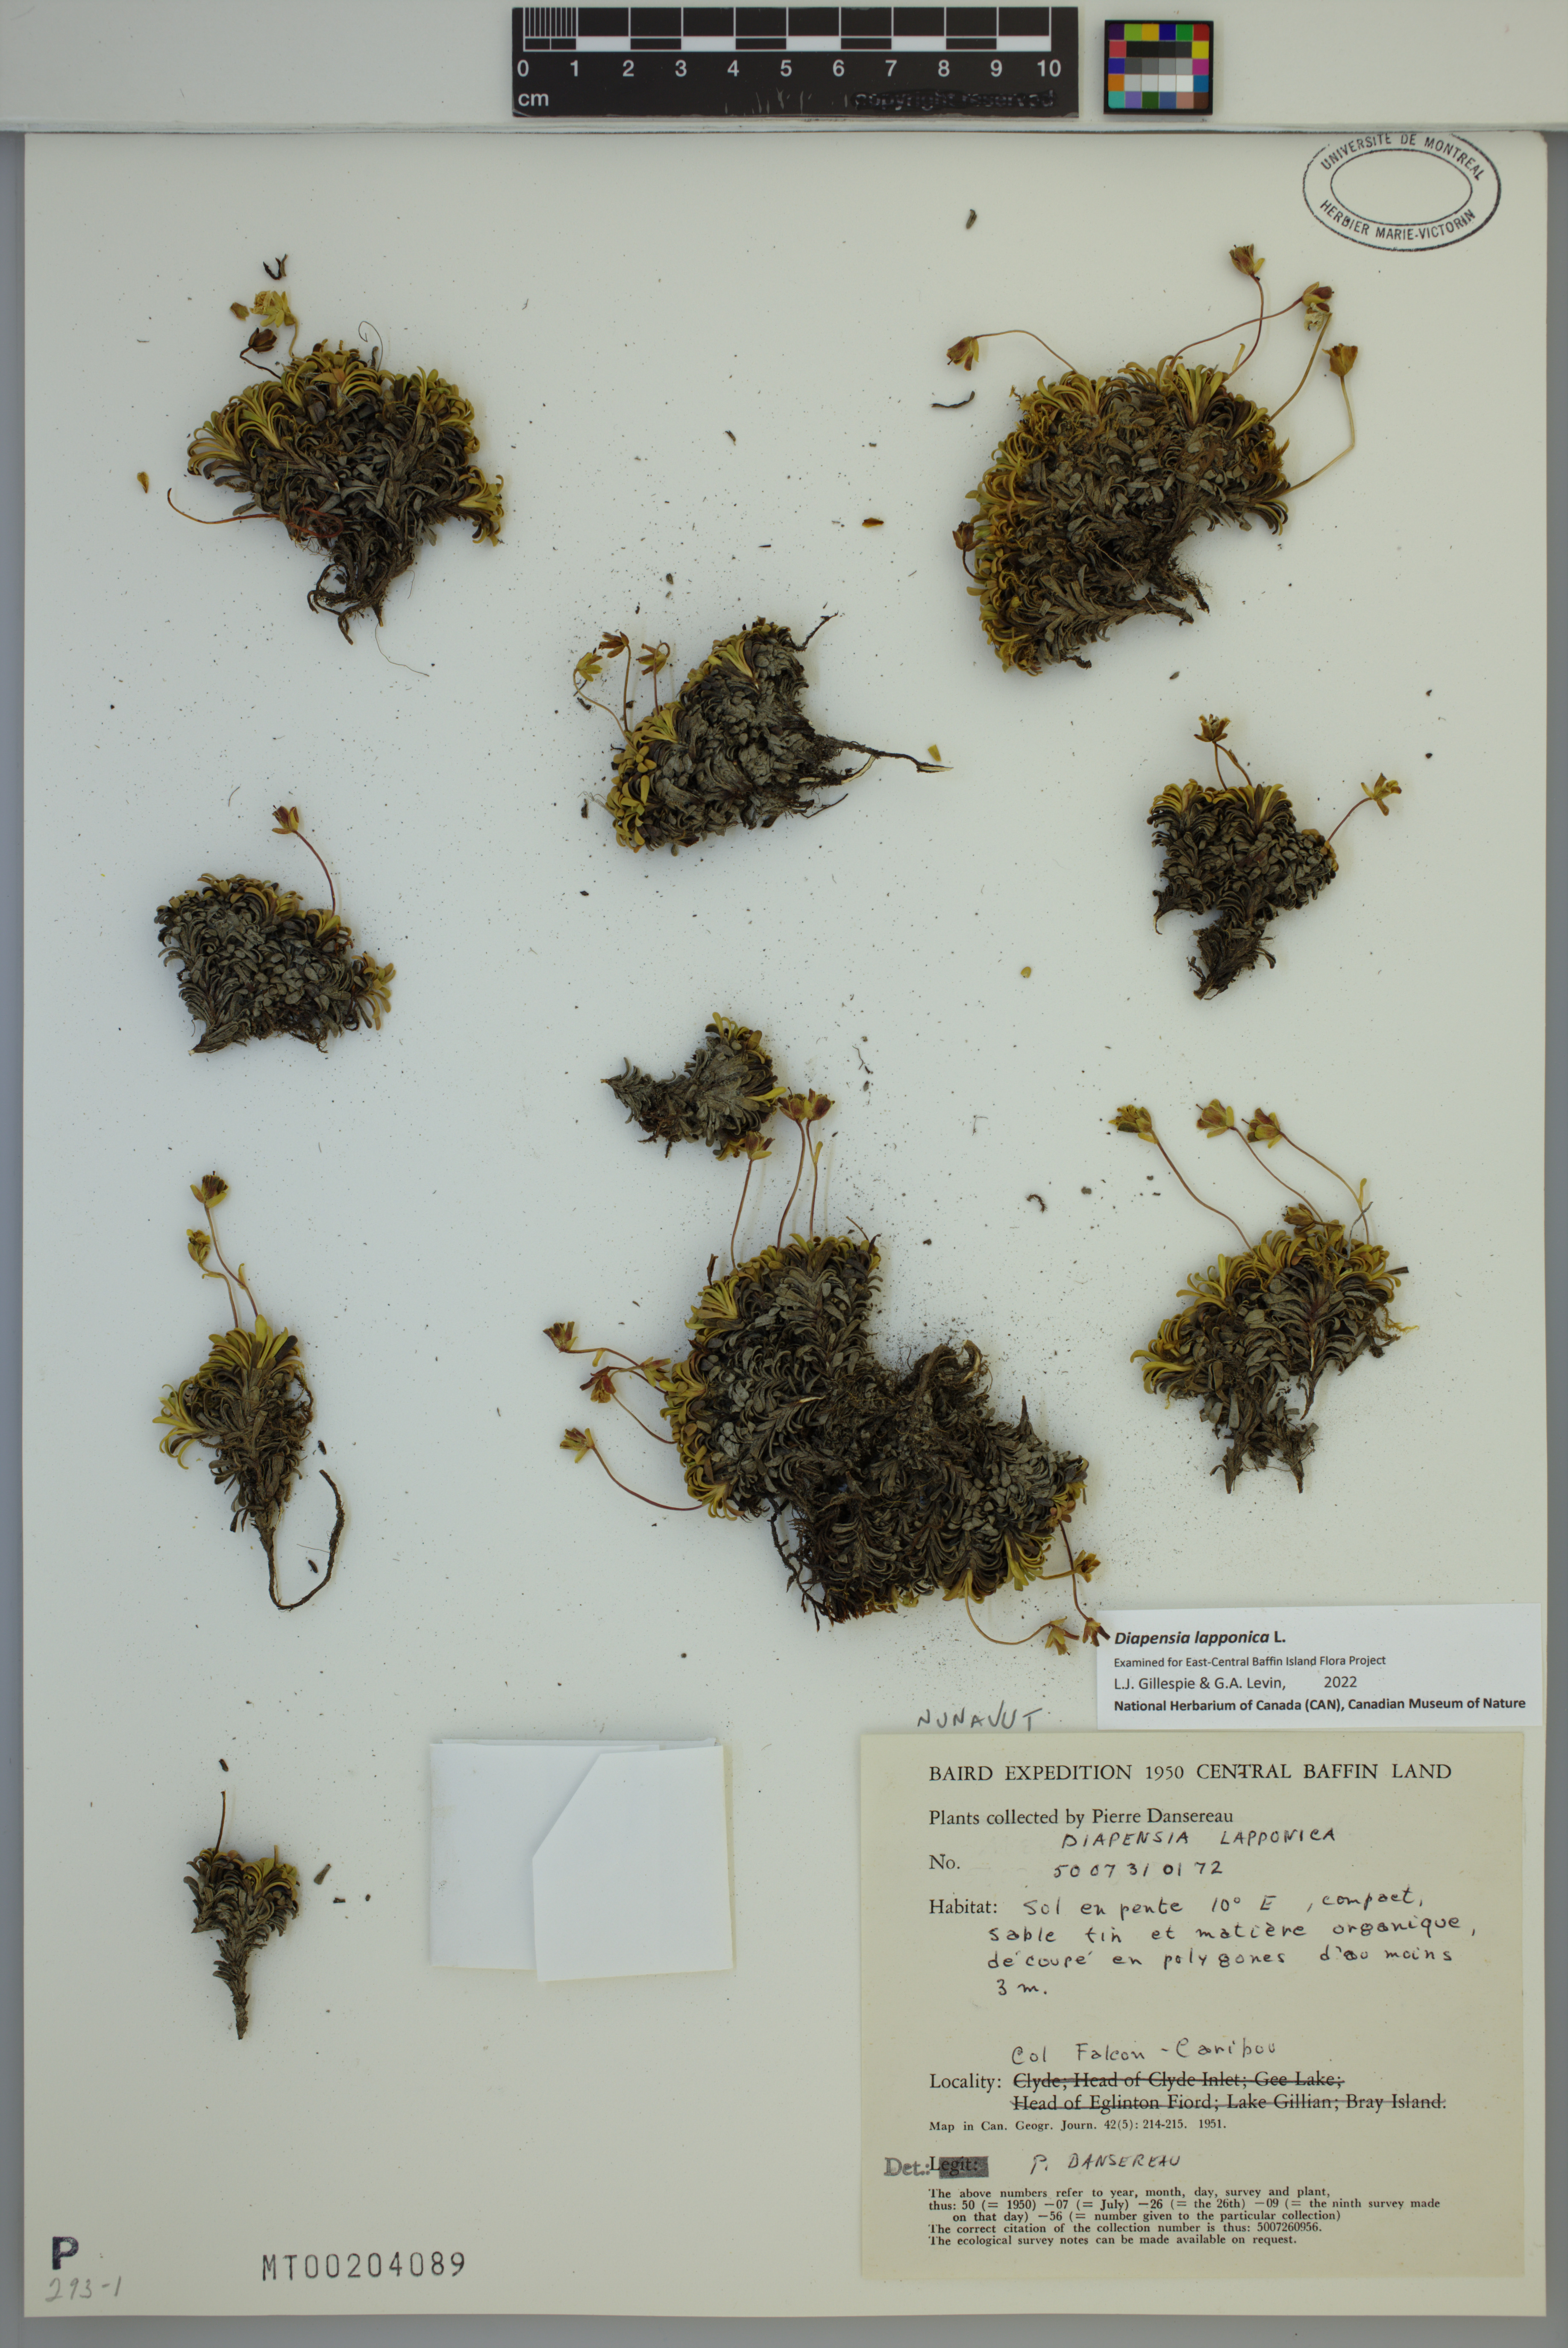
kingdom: Plantae
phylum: Tracheophyta
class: Magnoliopsida
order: Ericales
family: Diapensiaceae
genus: Diapensia
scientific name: Diapensia lapponica
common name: Diapensia
